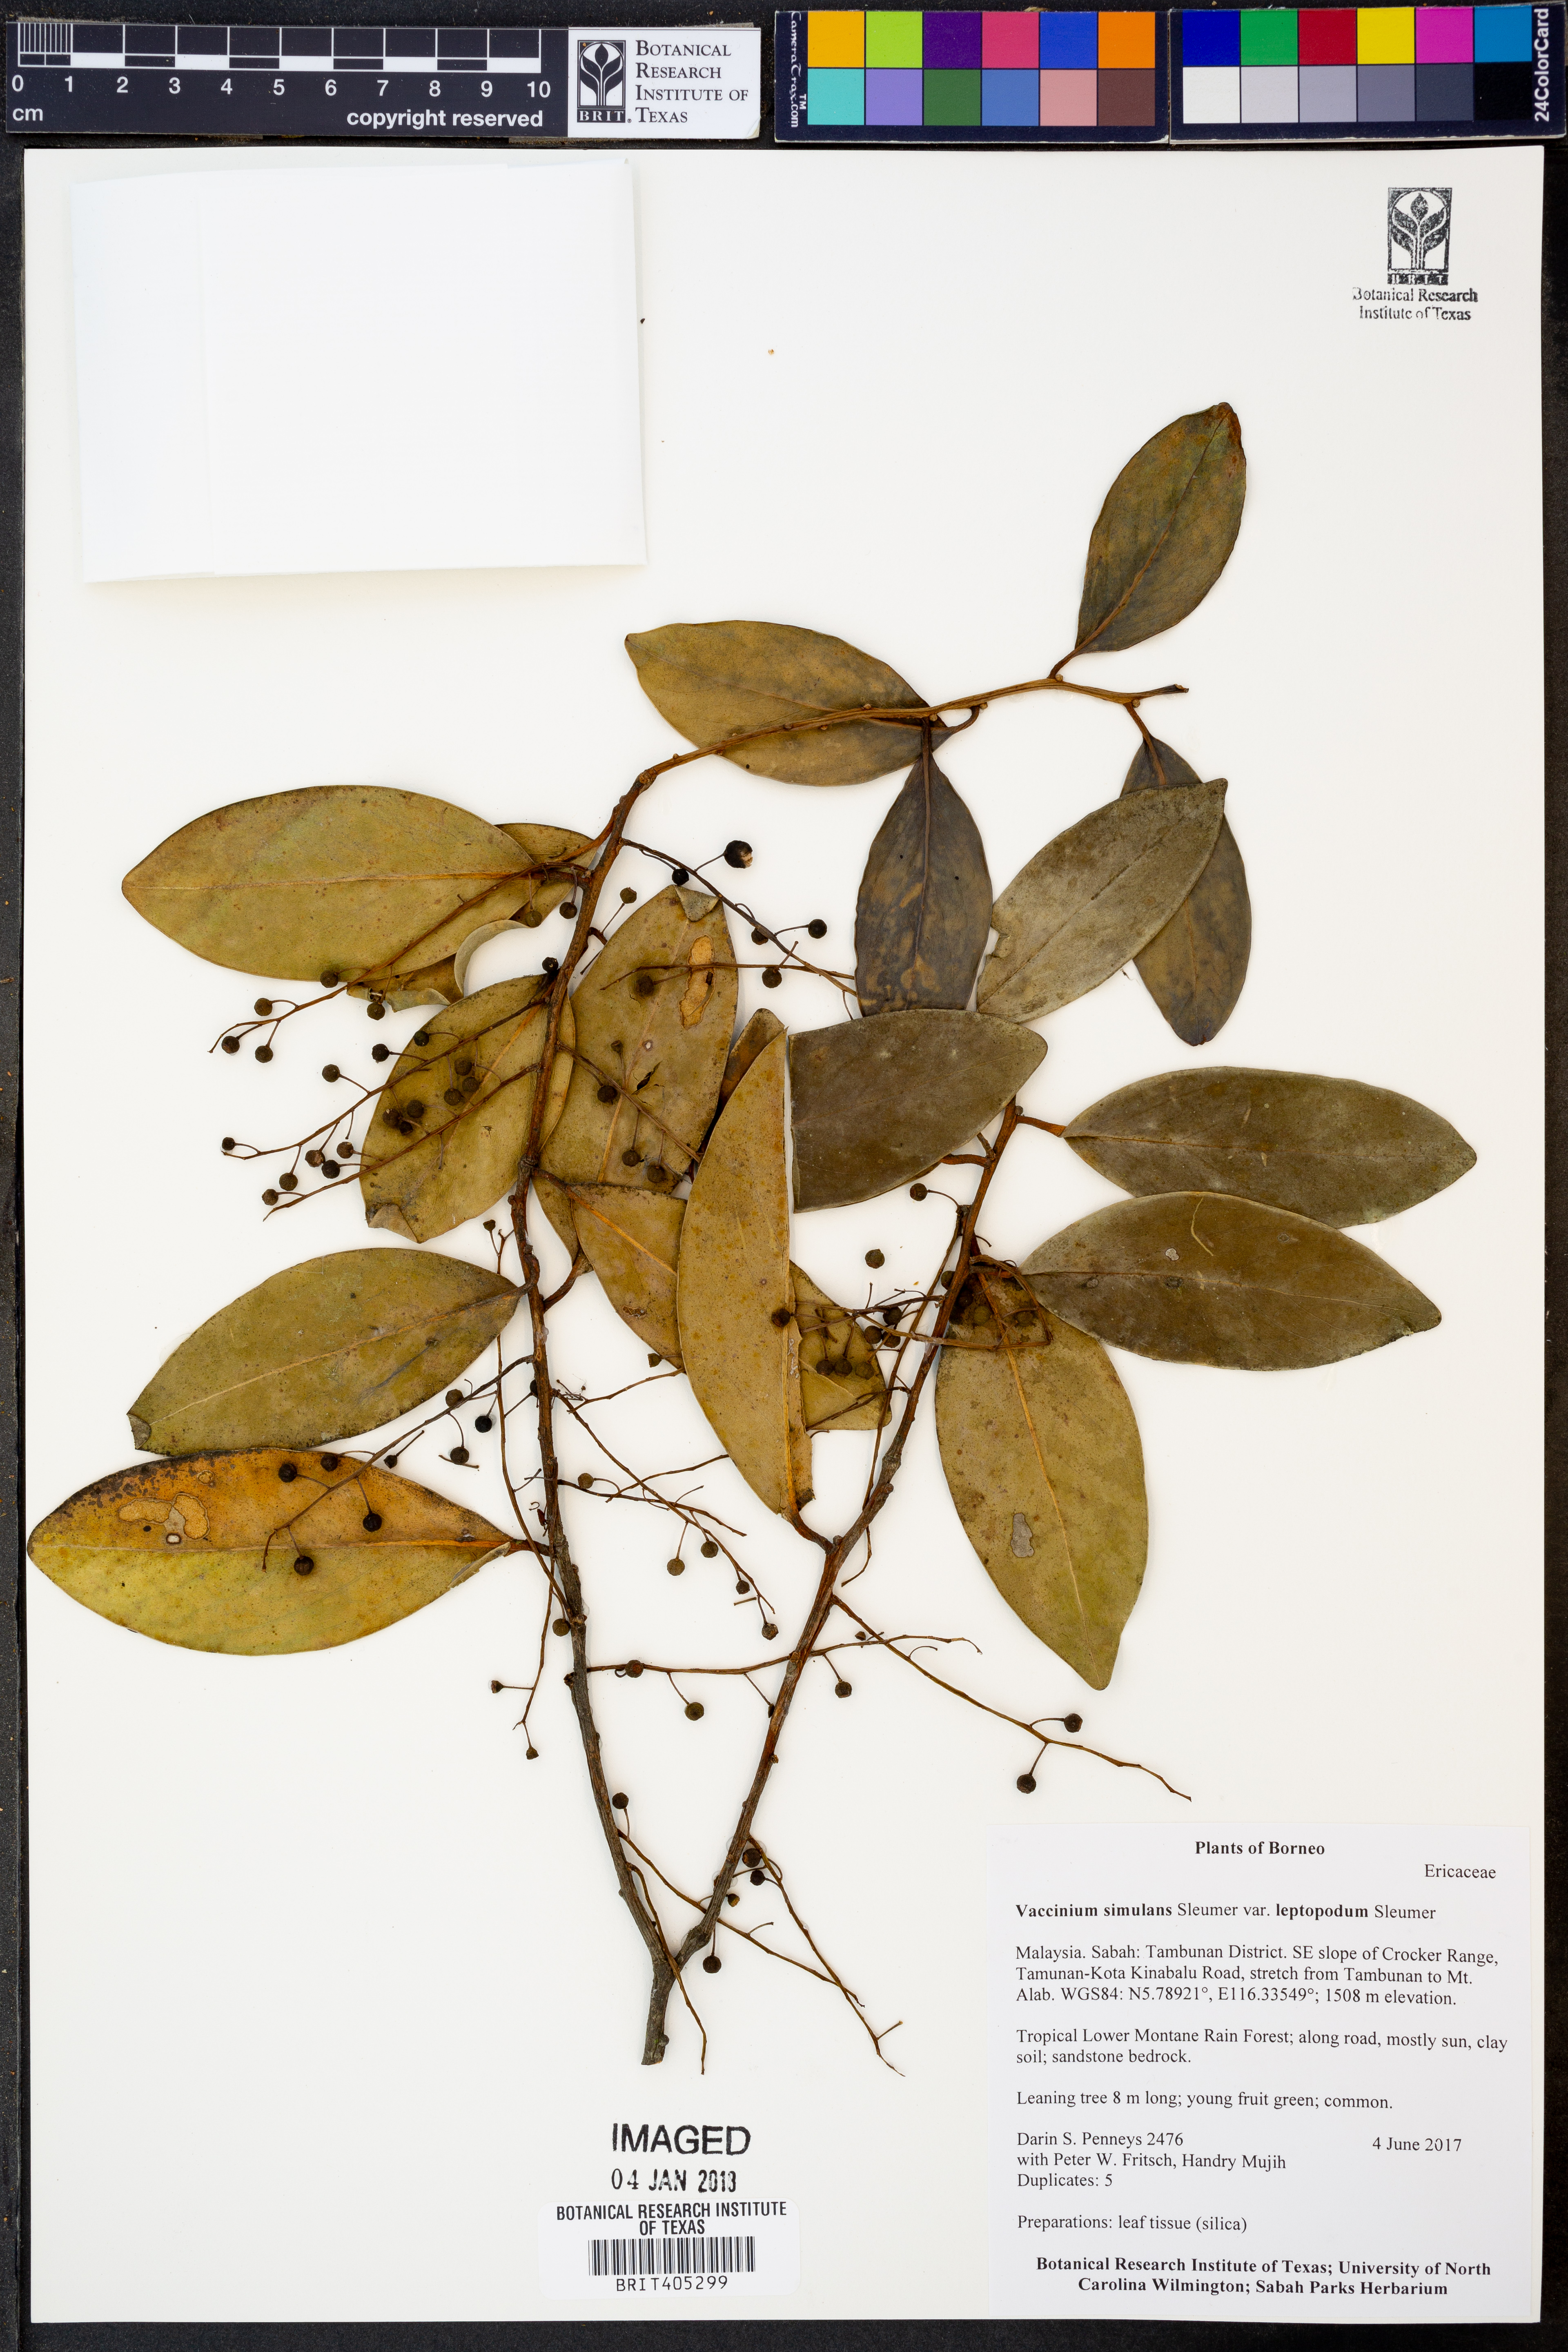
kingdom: Plantae
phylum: Tracheophyta
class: Magnoliopsida
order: Ericales
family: Ericaceae
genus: Vaccinium
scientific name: Vaccinium simulans
